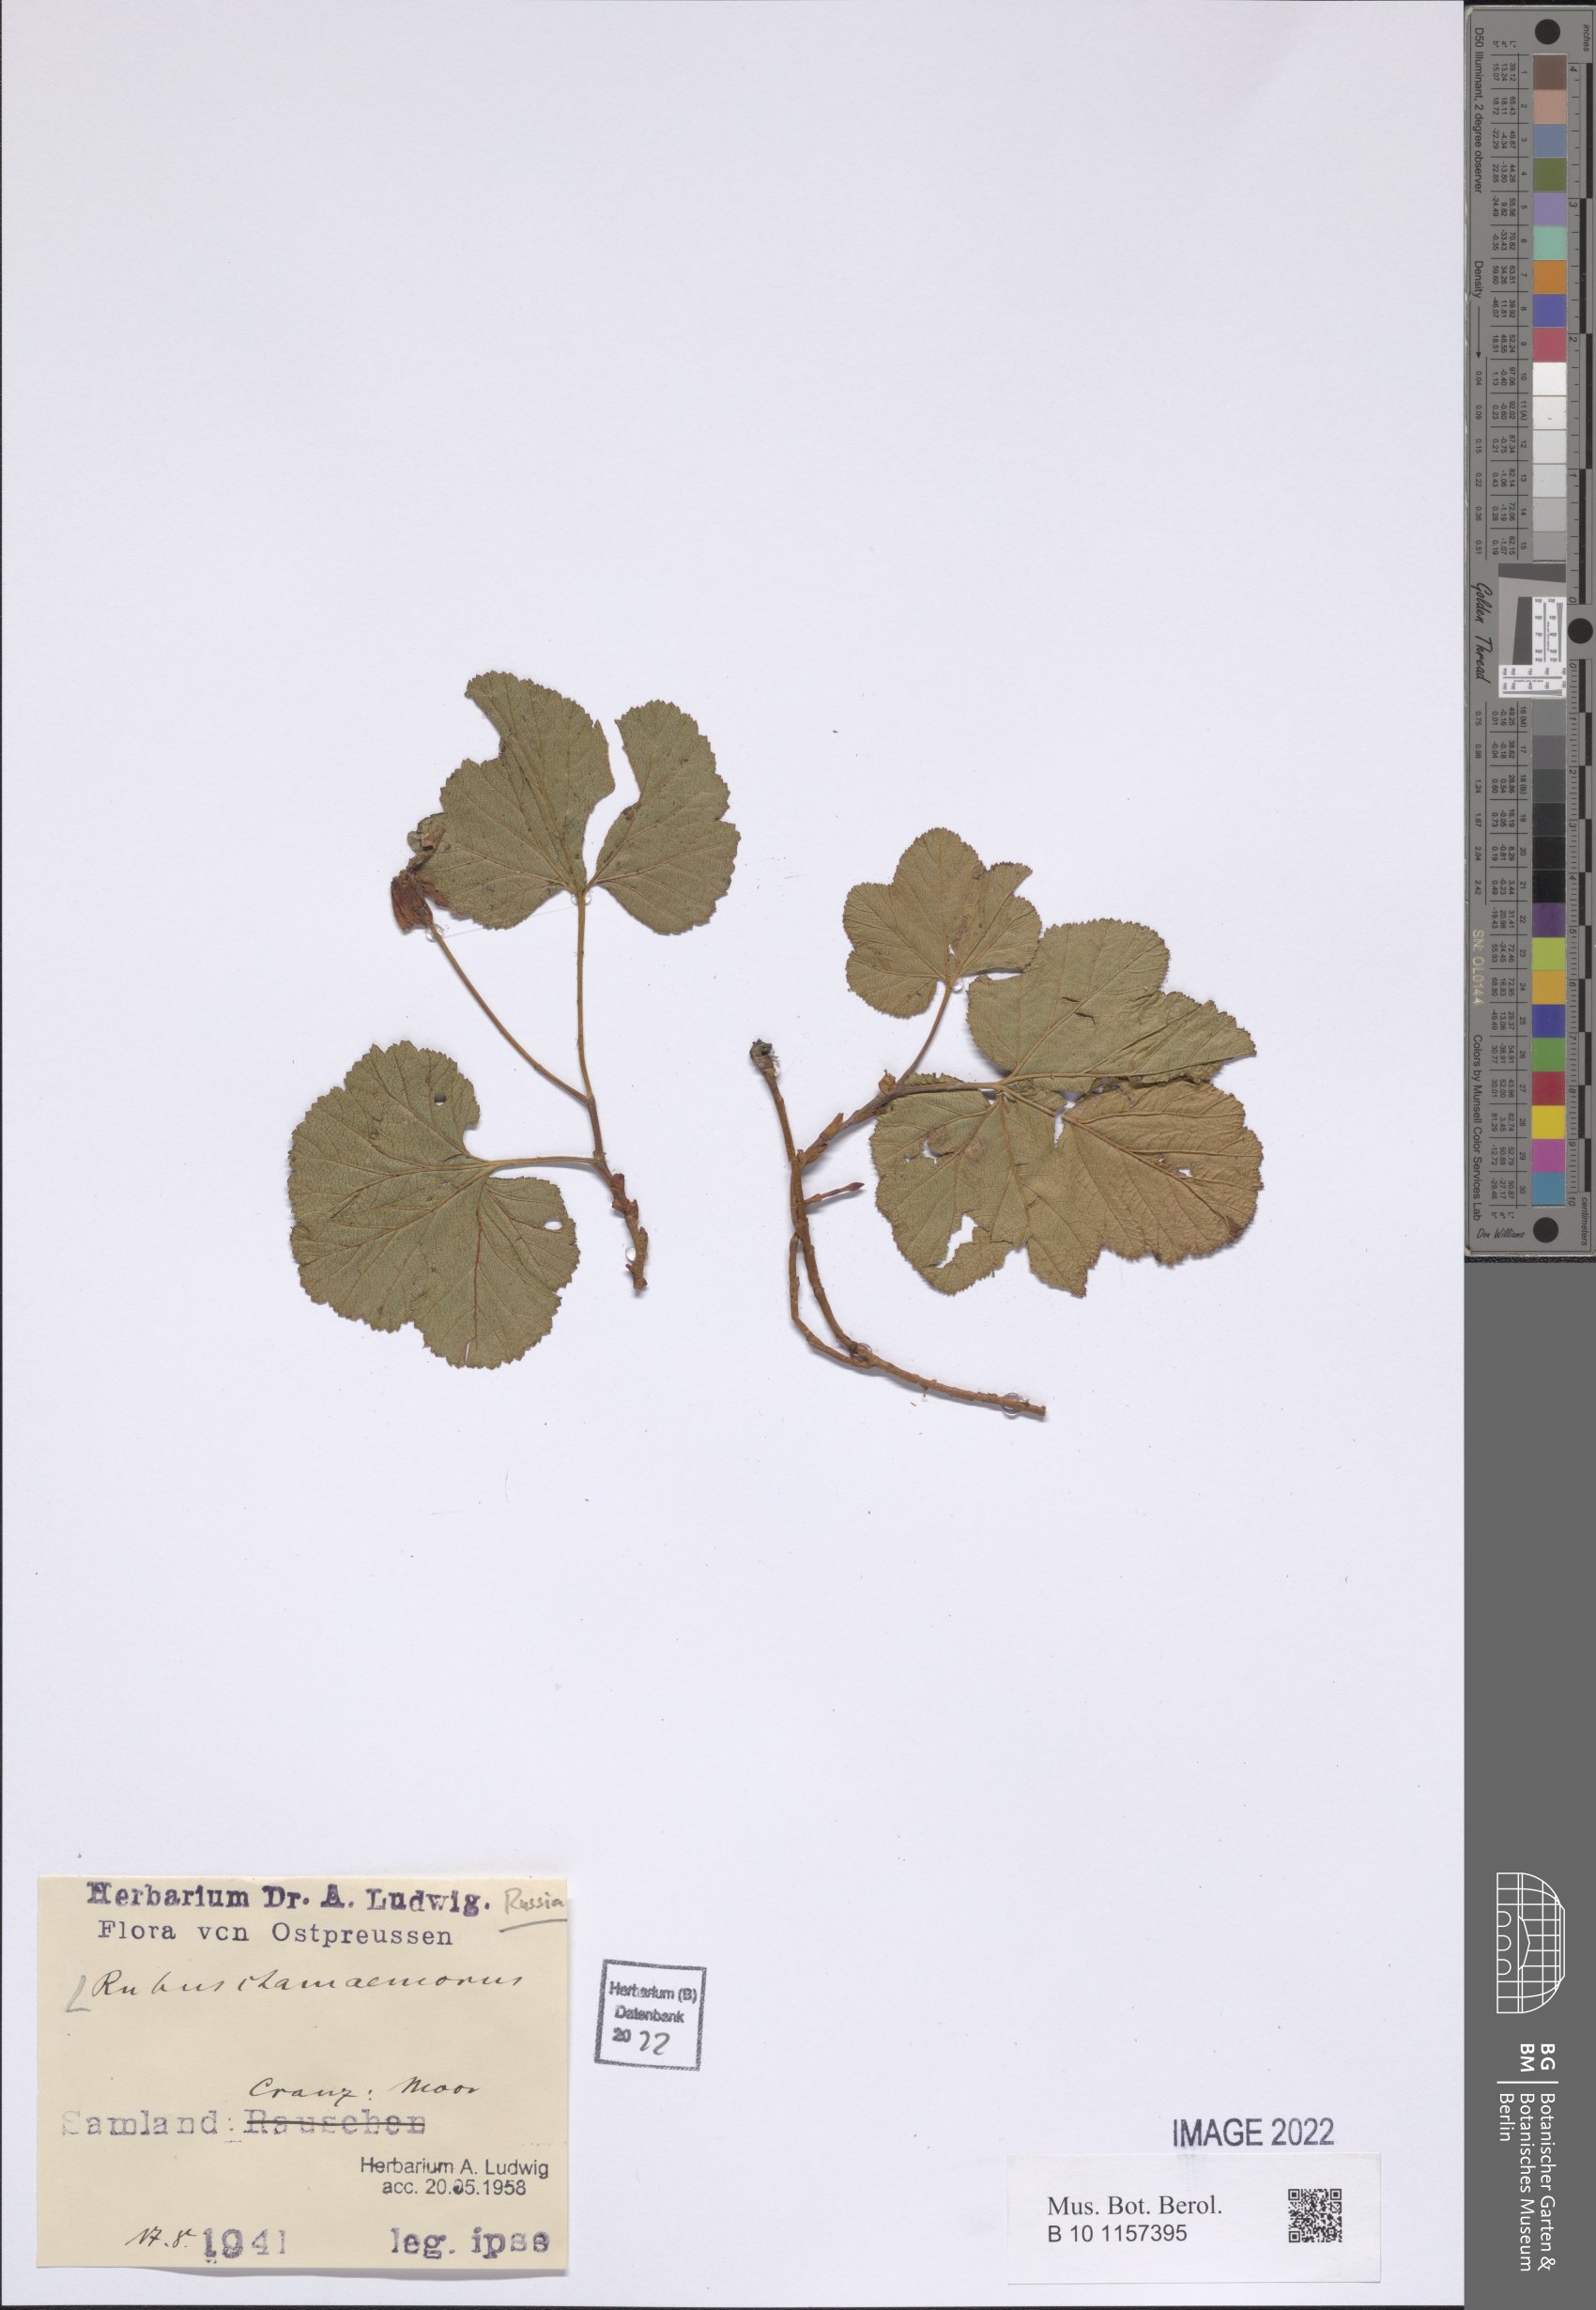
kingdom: Plantae
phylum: Tracheophyta
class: Magnoliopsida
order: Rosales
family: Rosaceae
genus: Rubus
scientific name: Rubus chamaemorus
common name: Cloudberry
